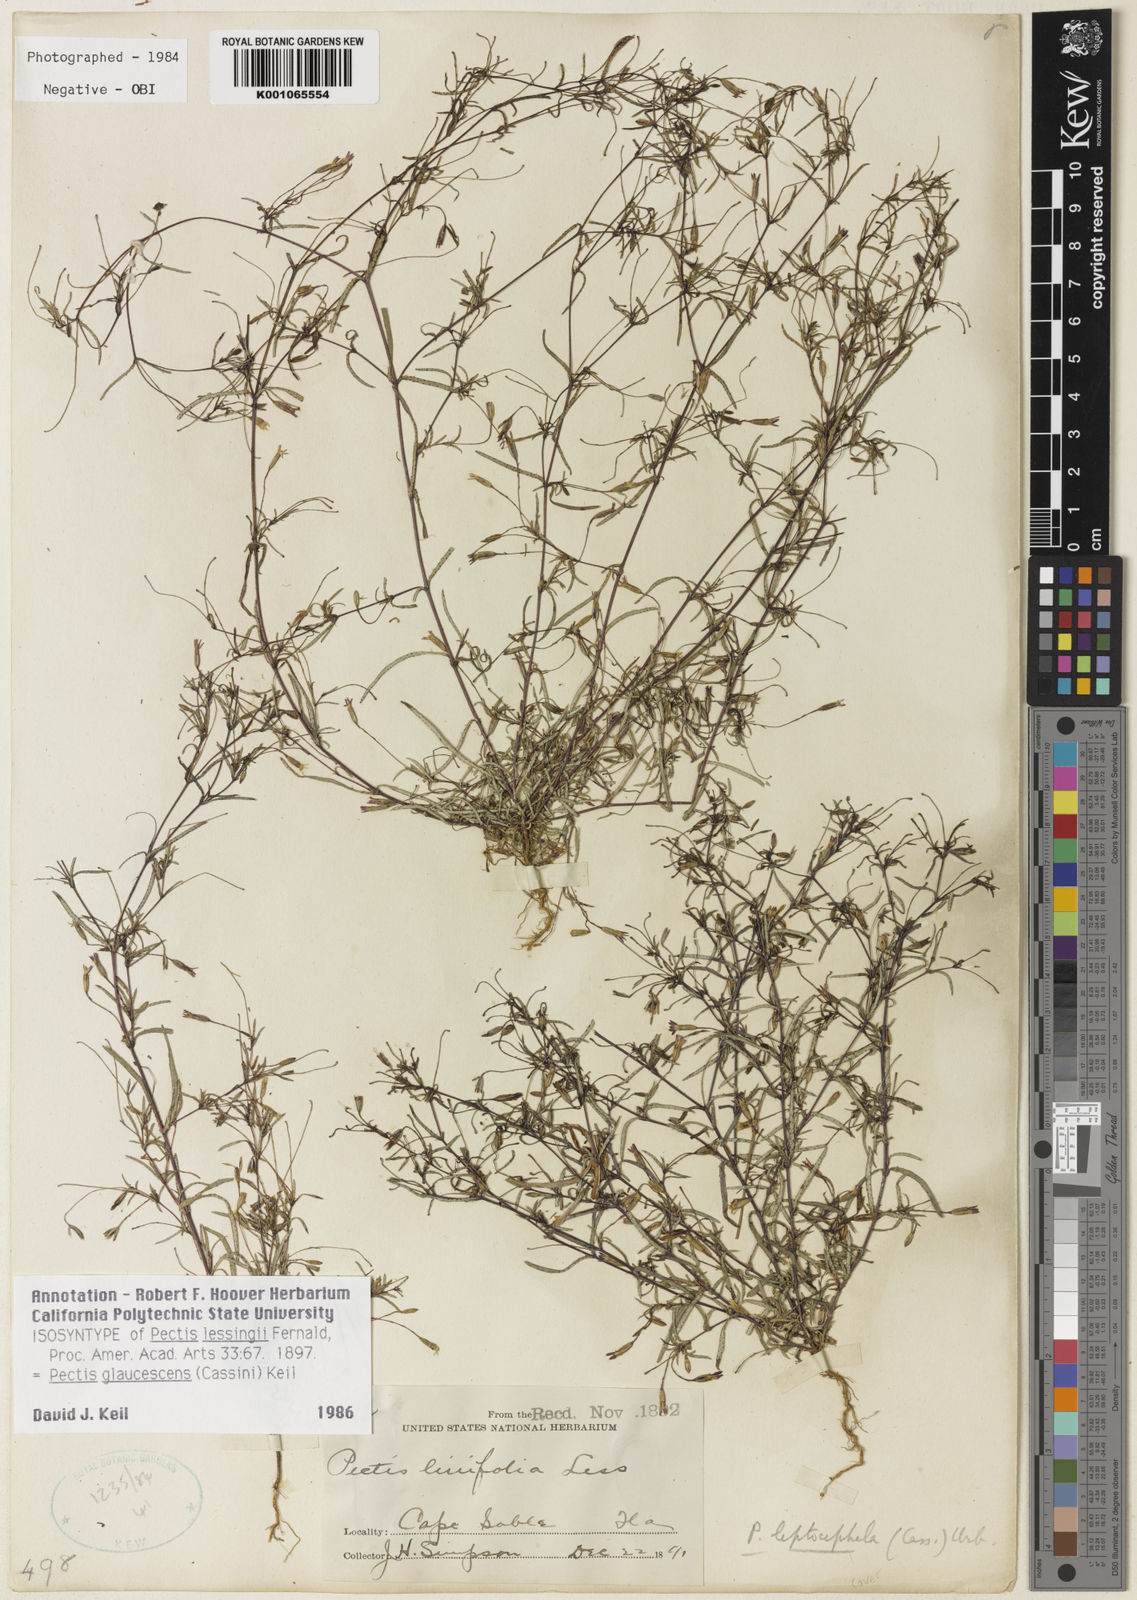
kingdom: Plantae
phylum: Tracheophyta
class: Magnoliopsida
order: Asterales
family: Asteraceae
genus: Pectis
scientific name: Pectis glaucescens
